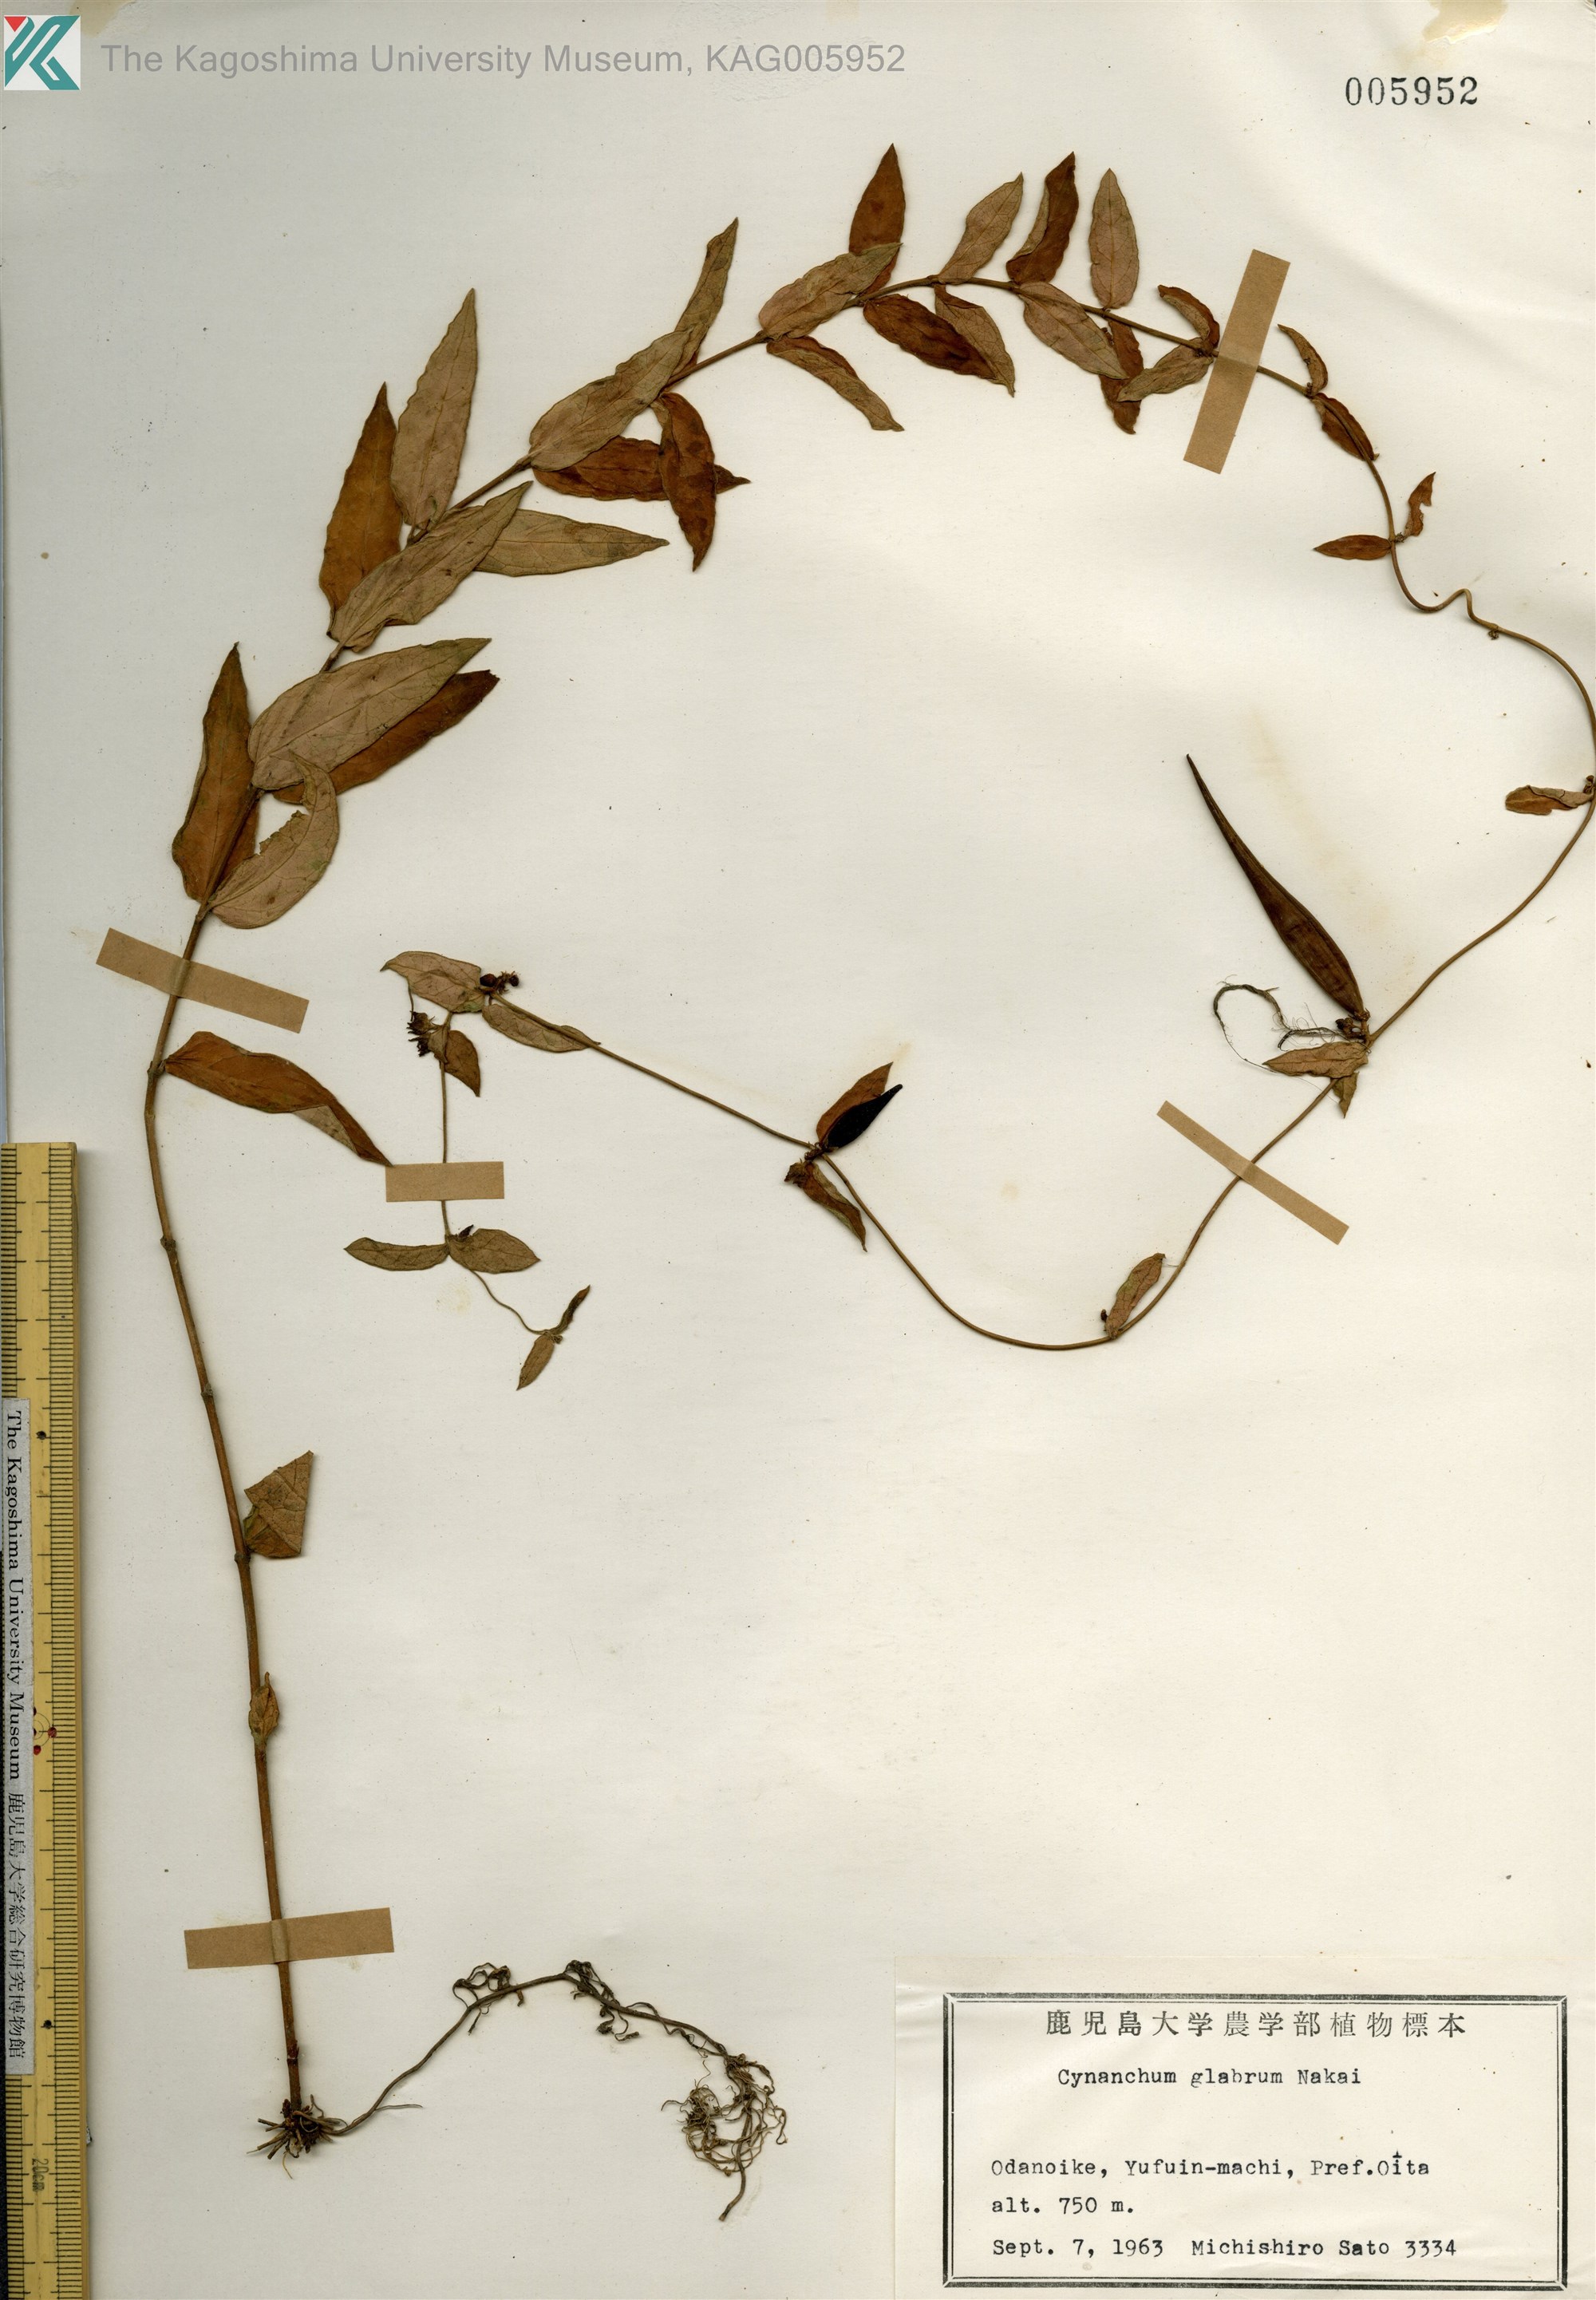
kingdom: Plantae
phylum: Tracheophyta
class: Magnoliopsida
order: Gentianales
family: Apocynaceae
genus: Vincetoxicum
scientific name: Vincetoxicum nipponicum
